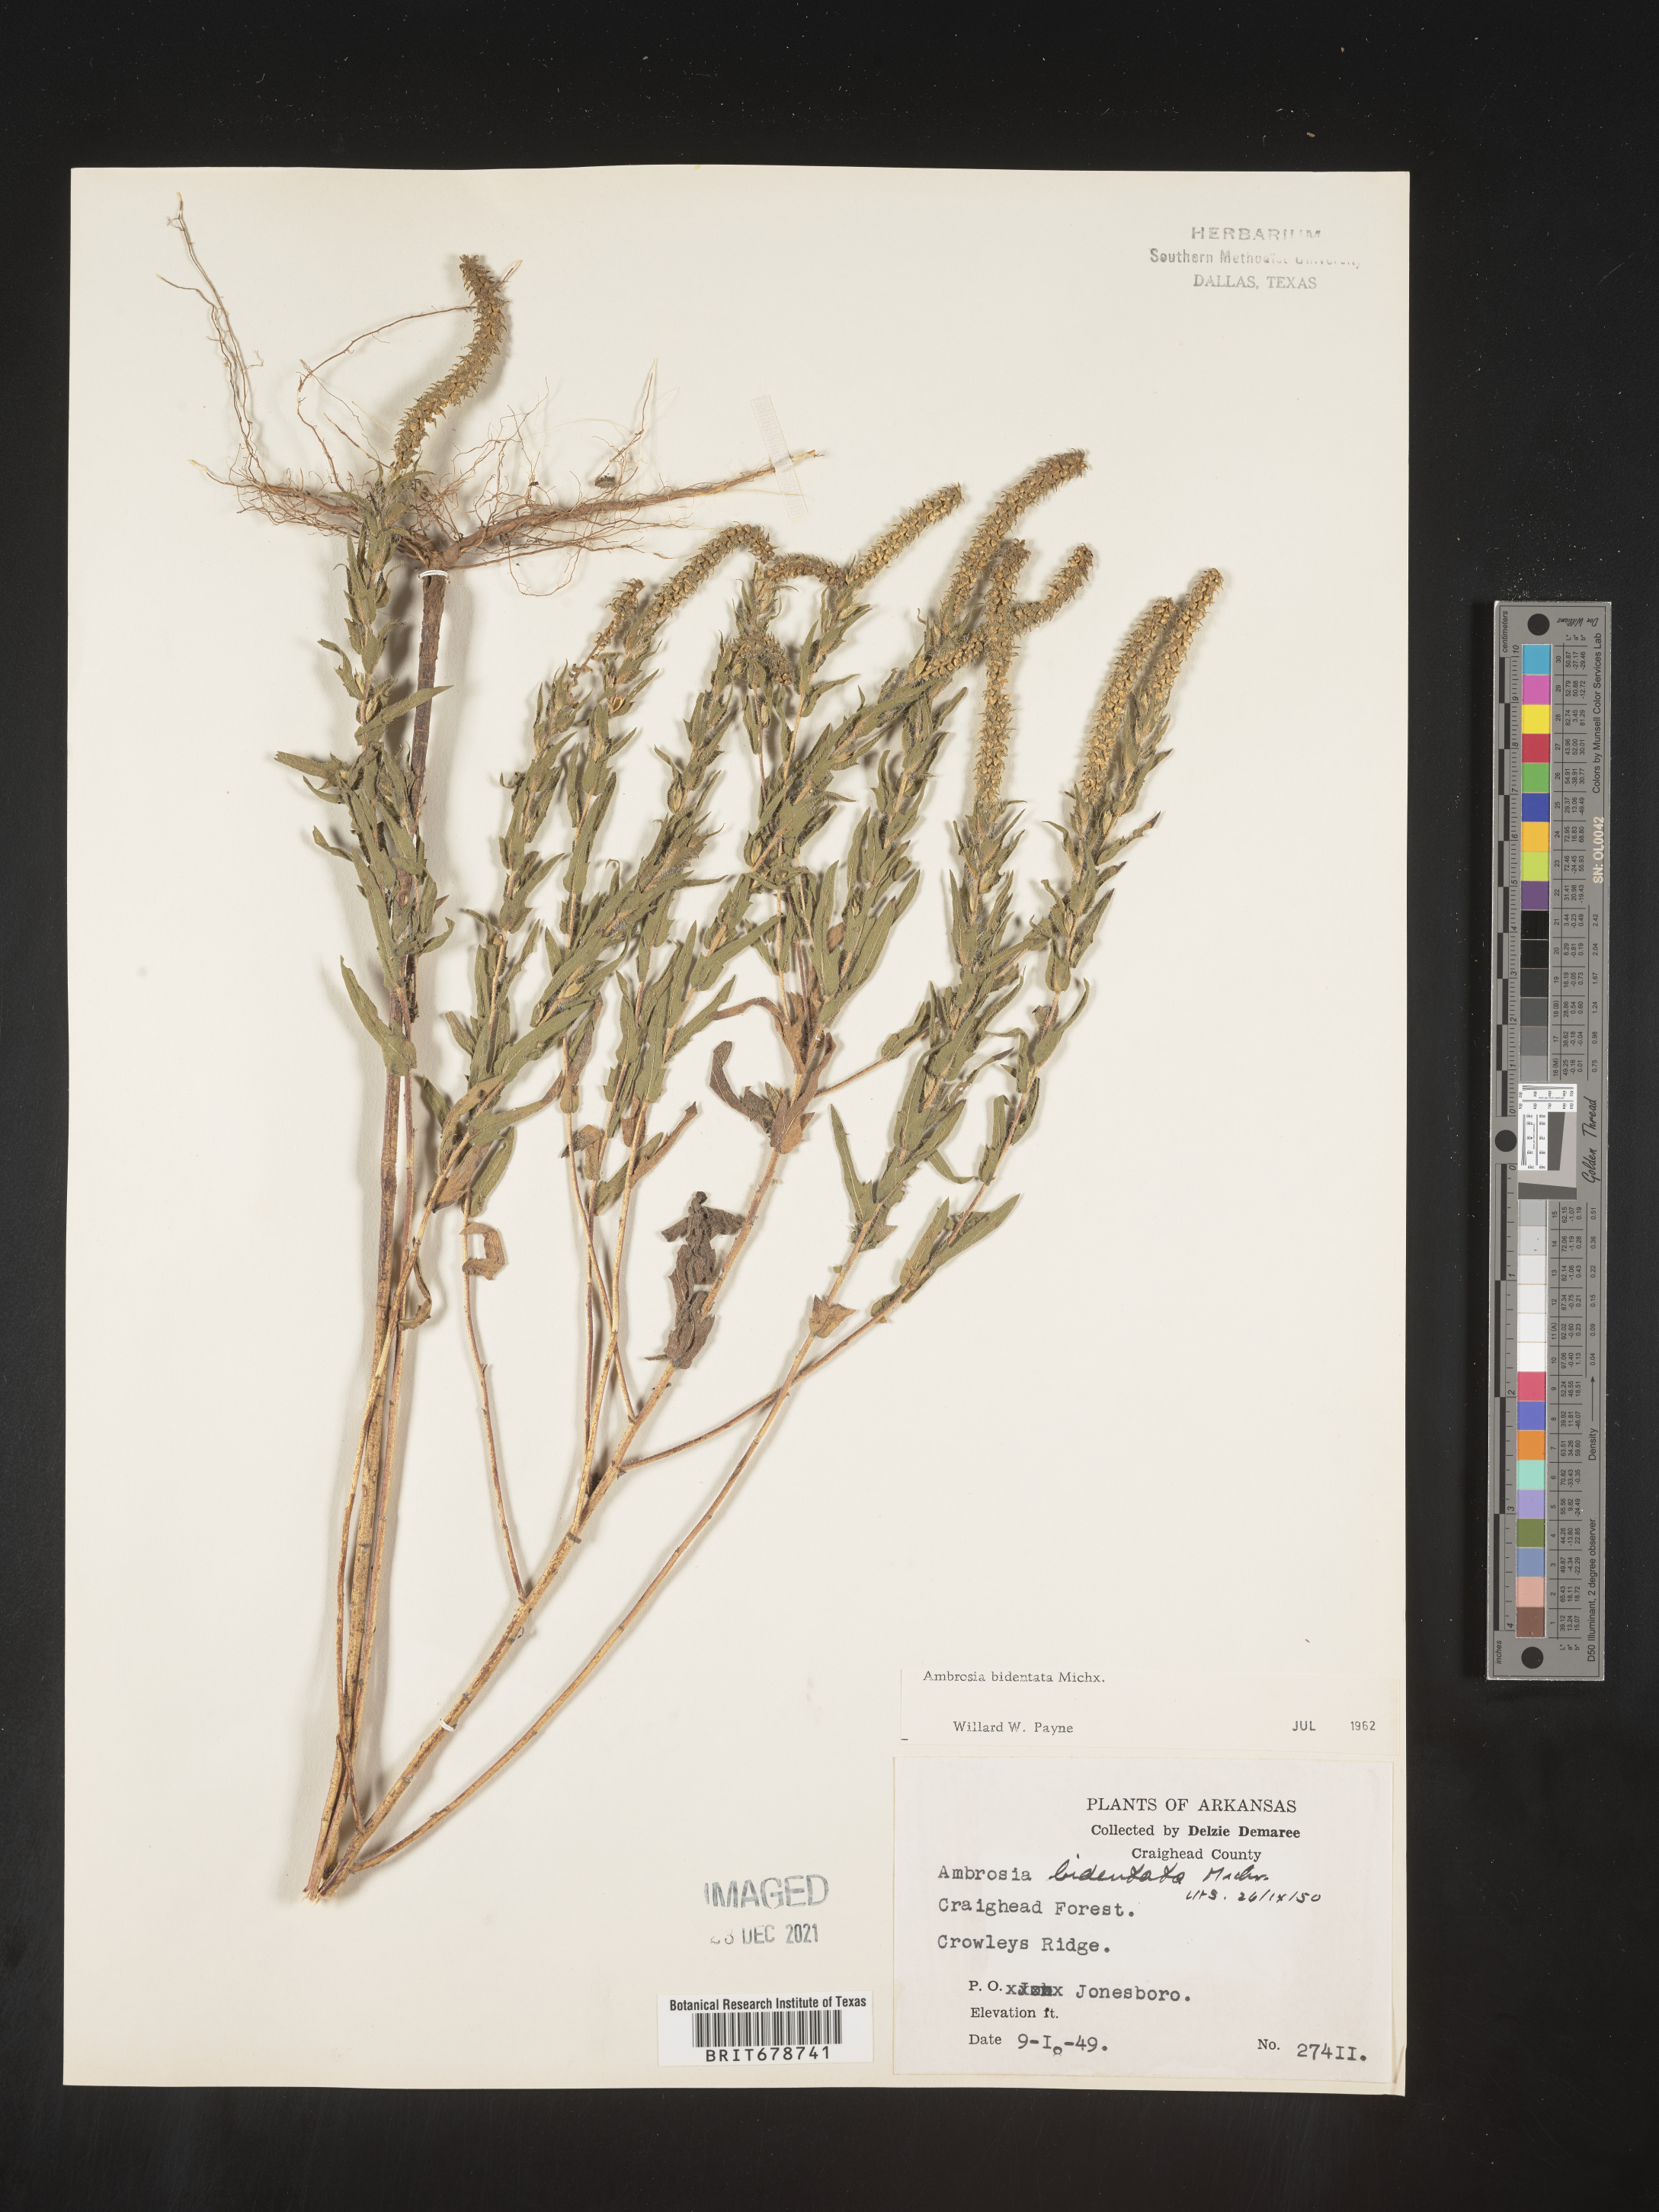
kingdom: Plantae
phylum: Tracheophyta
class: Magnoliopsida
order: Asterales
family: Asteraceae
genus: Ambrosia
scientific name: Ambrosia bidentata
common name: Southern ragweed
